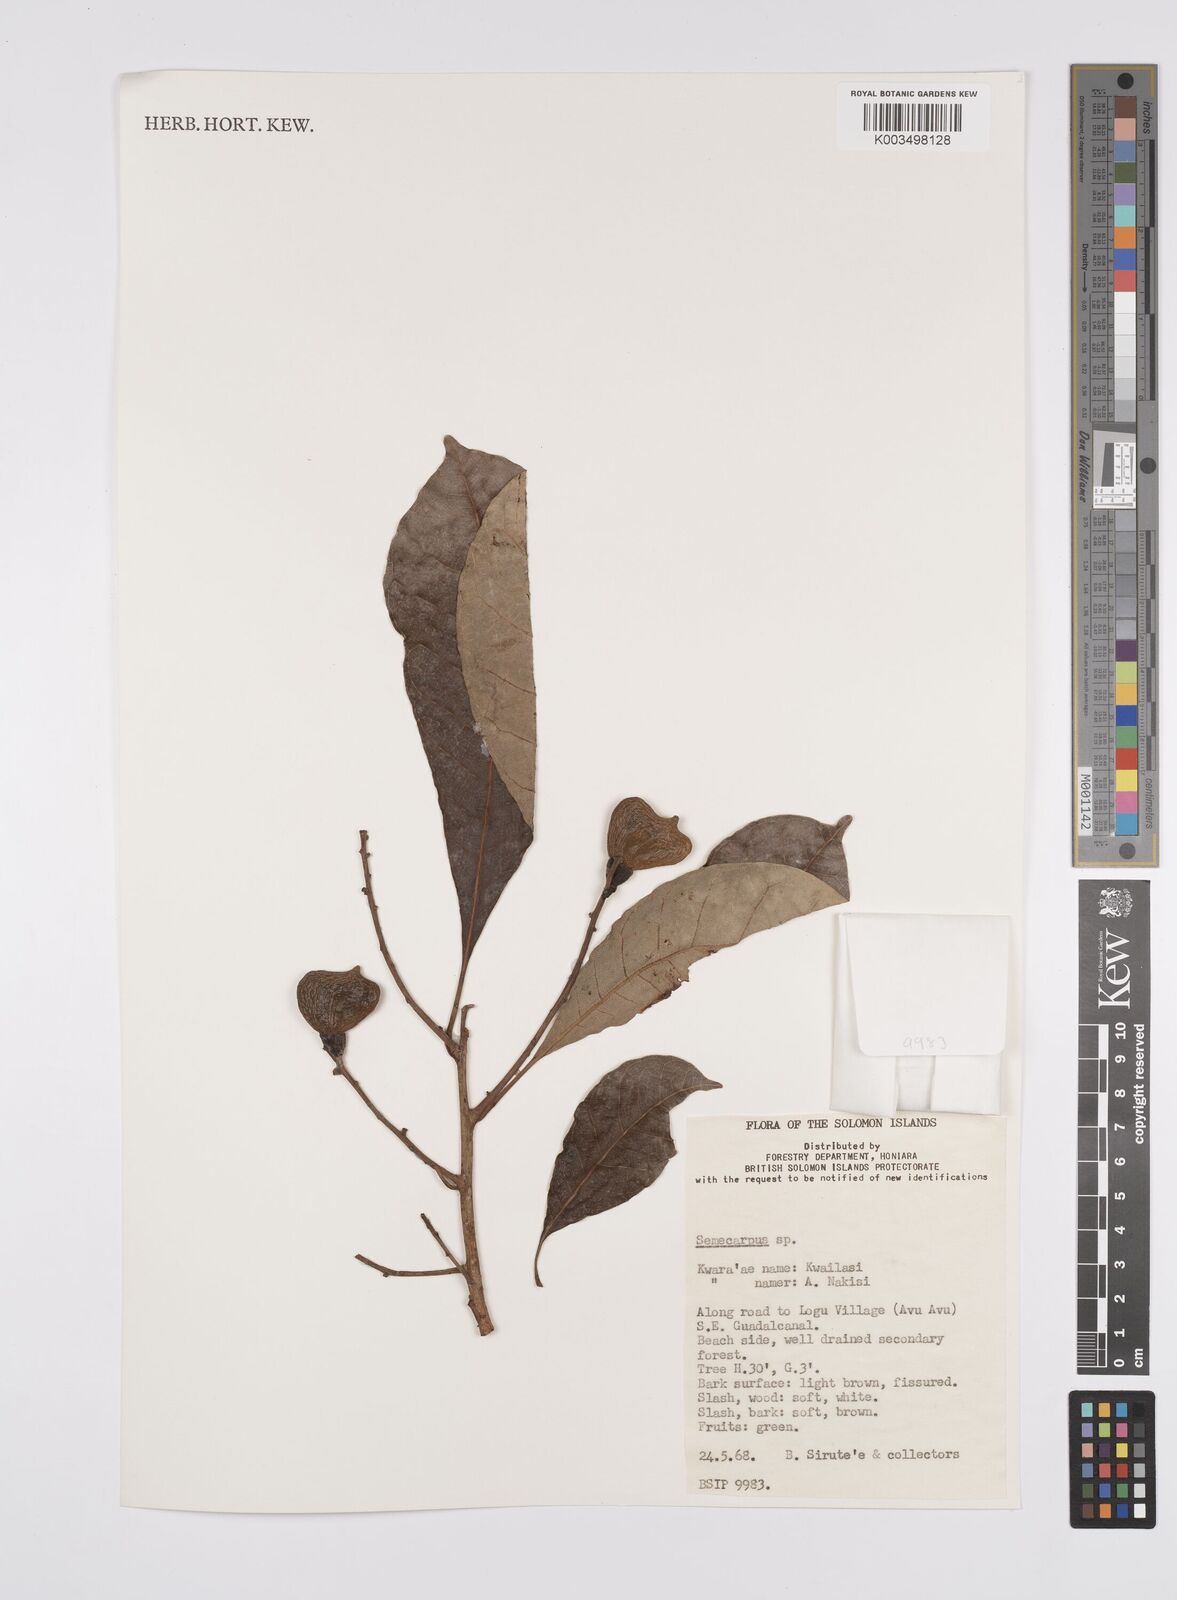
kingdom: Plantae
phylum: Tracheophyta
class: Magnoliopsida
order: Sapindales
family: Anacardiaceae
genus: Semecarpus
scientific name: Semecarpus
